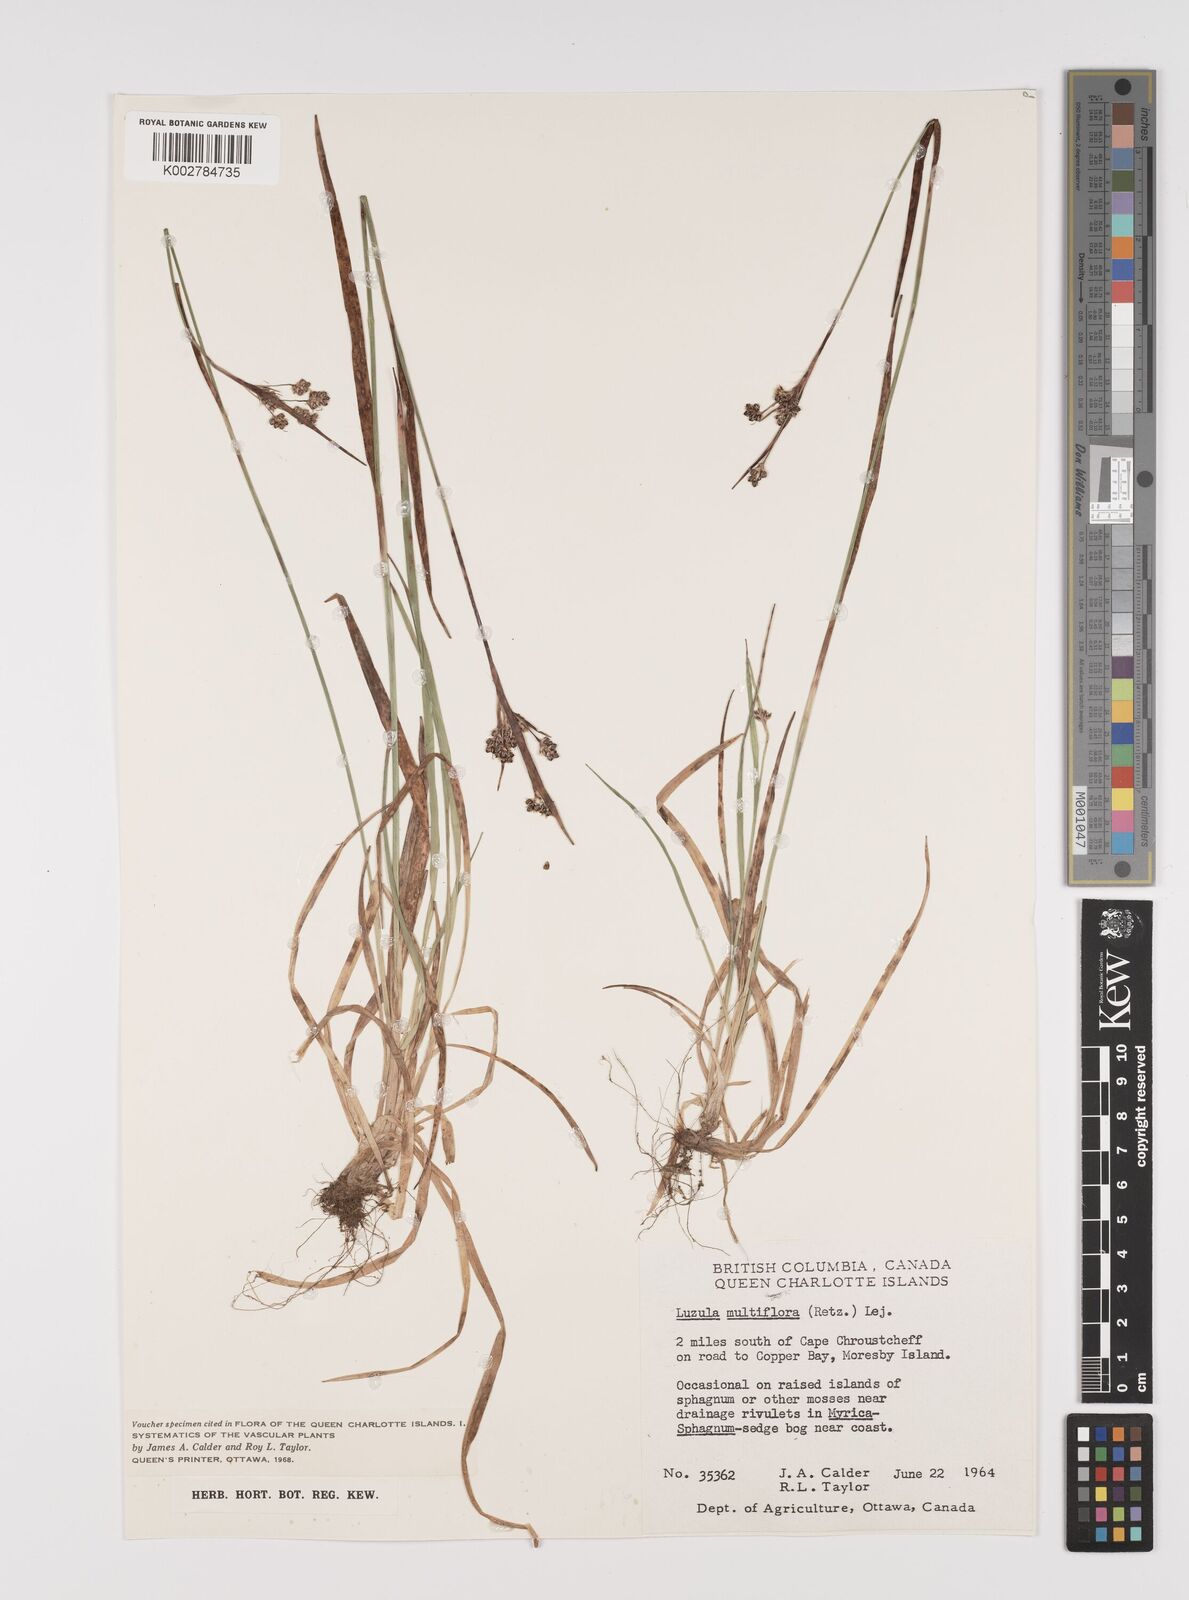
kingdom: Plantae
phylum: Tracheophyta
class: Liliopsida
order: Poales
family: Juncaceae
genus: Luzula
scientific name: Luzula campestris
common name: Field wood-rush
